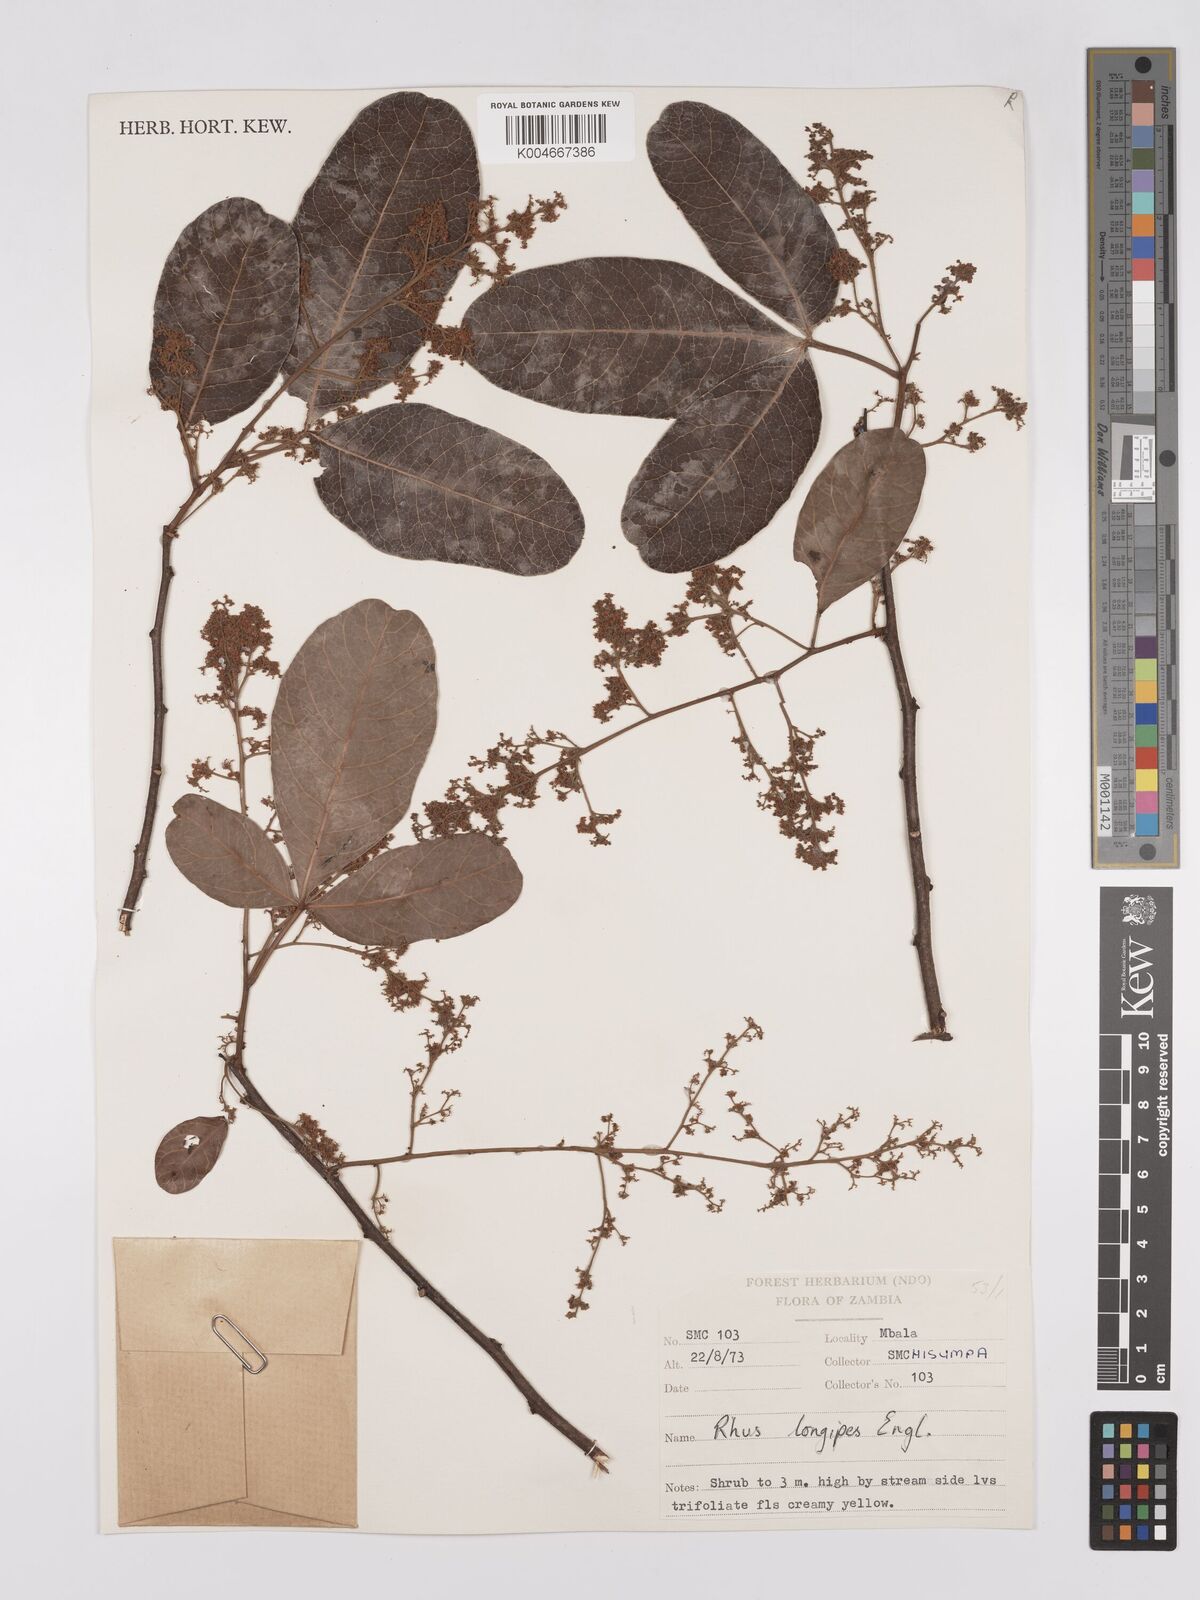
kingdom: Plantae
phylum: Tracheophyta
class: Magnoliopsida
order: Sapindales
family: Anacardiaceae
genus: Searsia
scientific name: Searsia longipes
